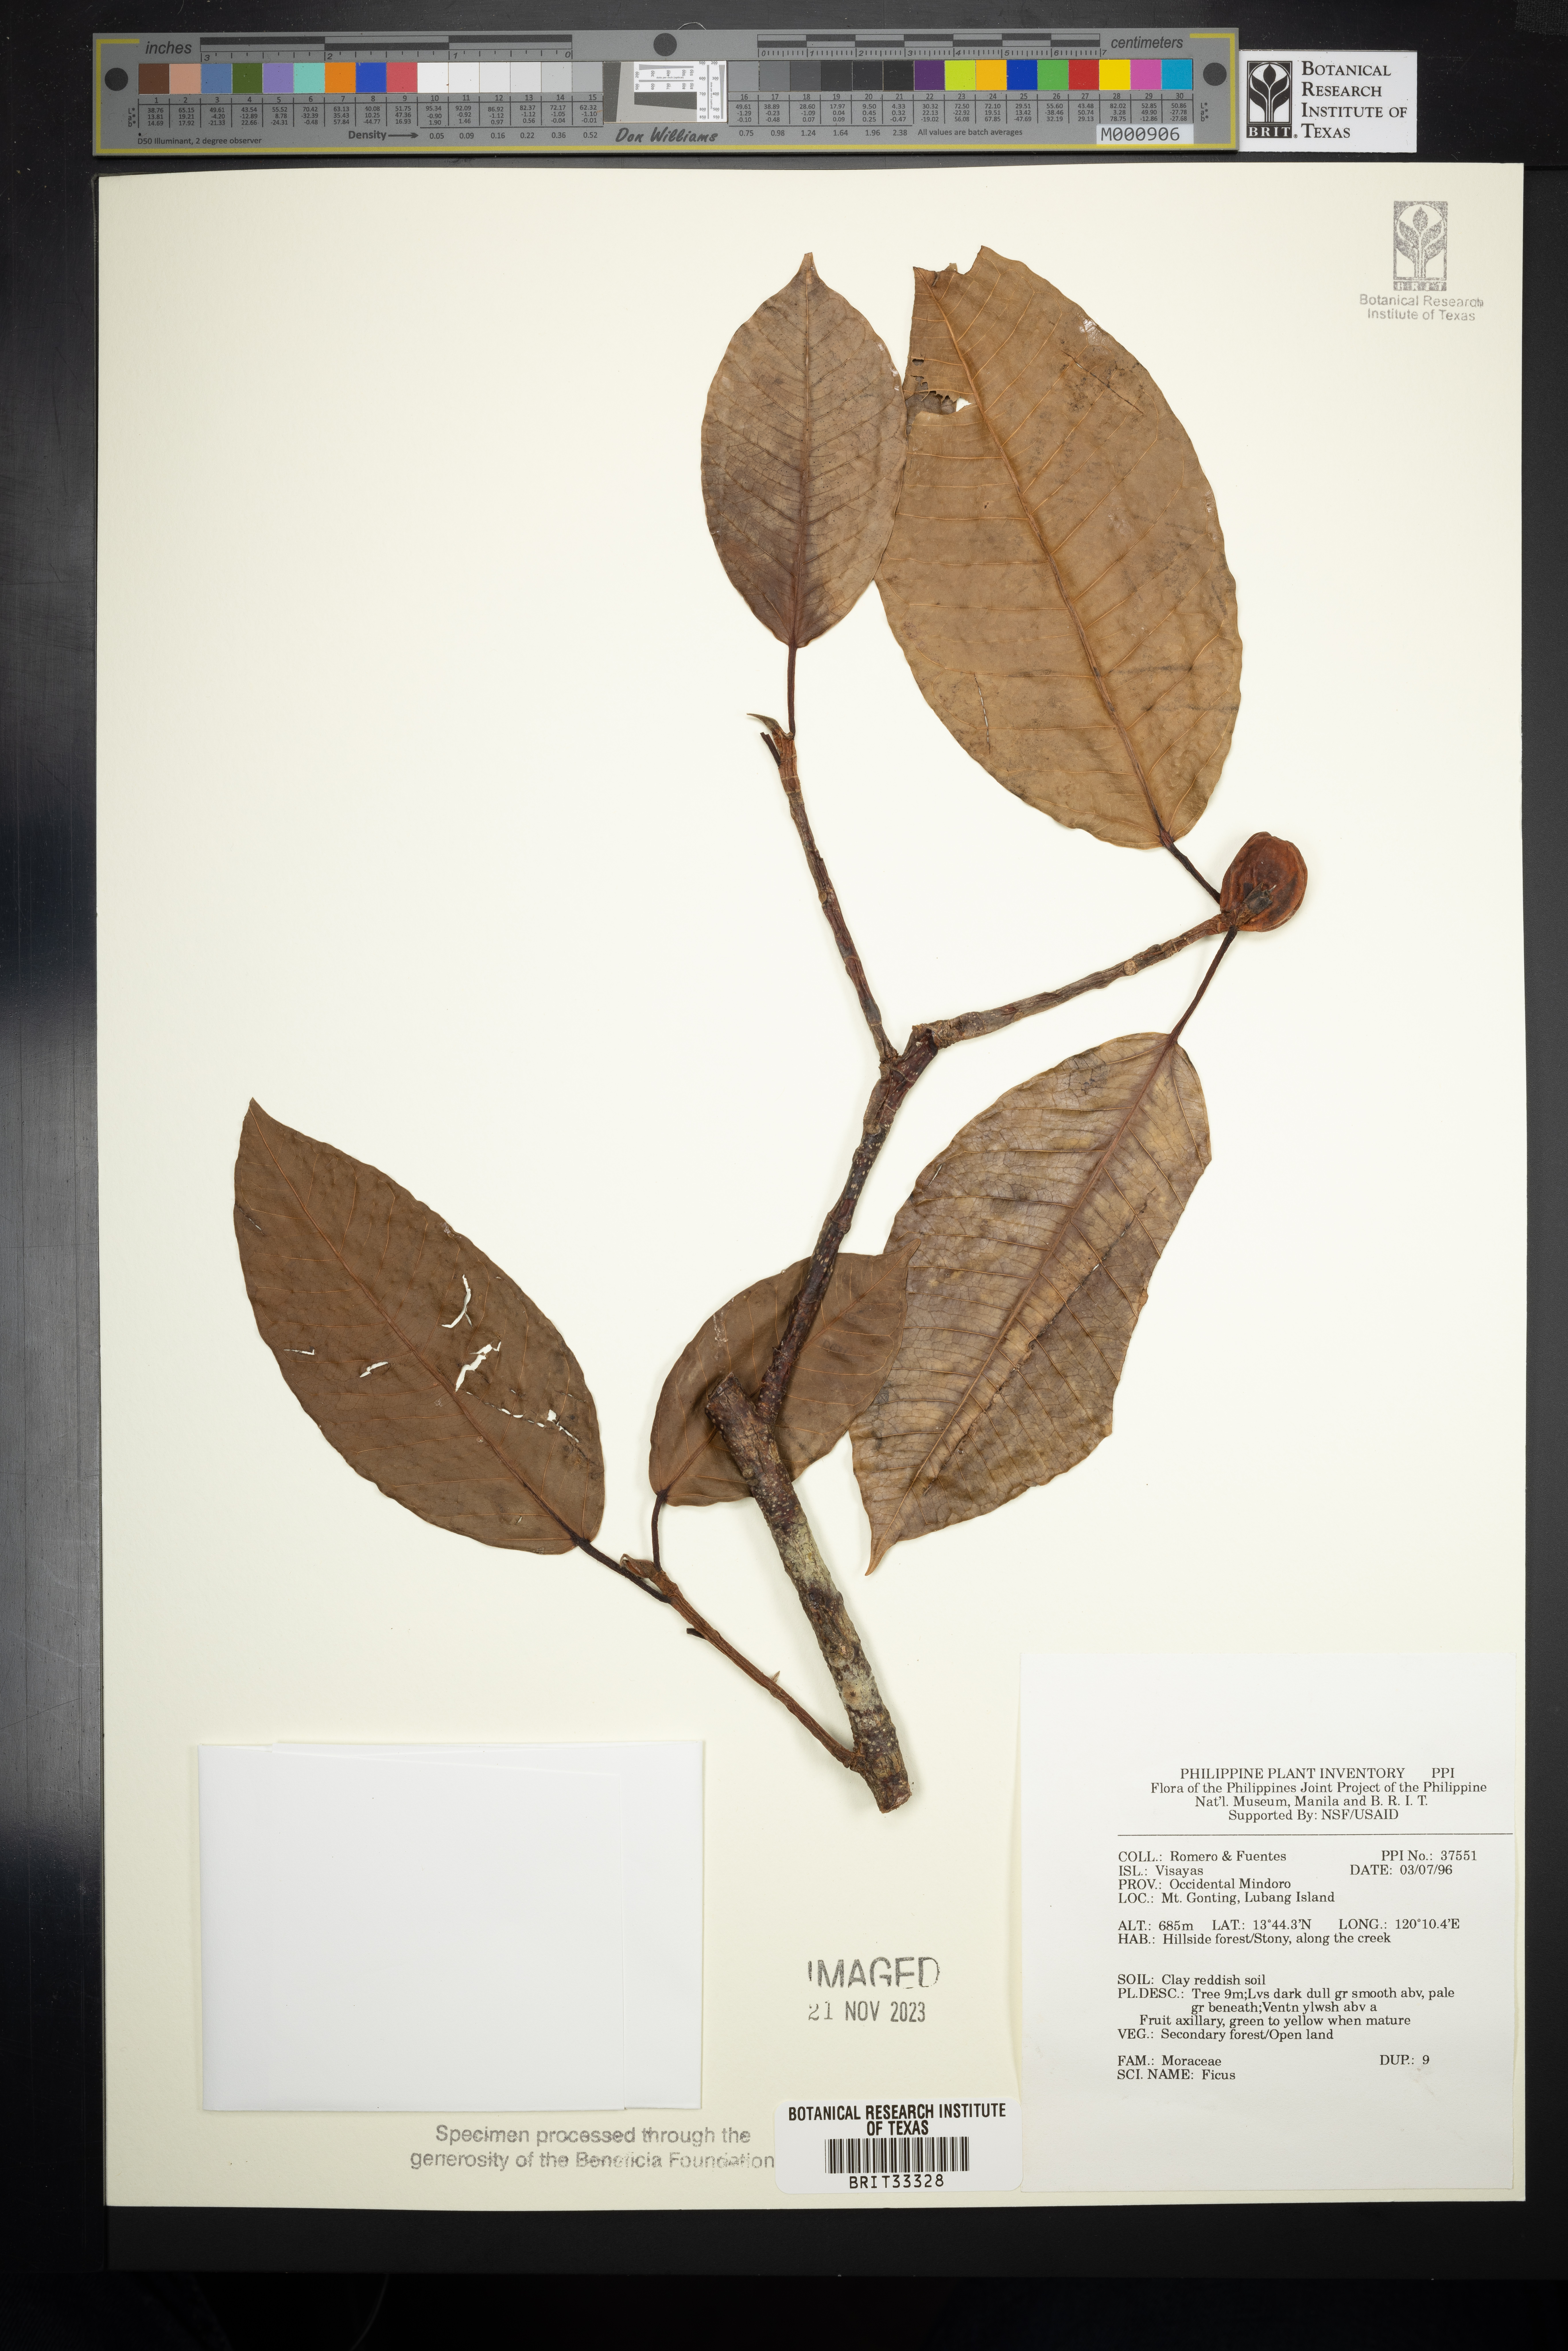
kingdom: Plantae
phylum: Tracheophyta
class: Magnoliopsida
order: Rosales
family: Moraceae
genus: Ficus
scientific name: Ficus
